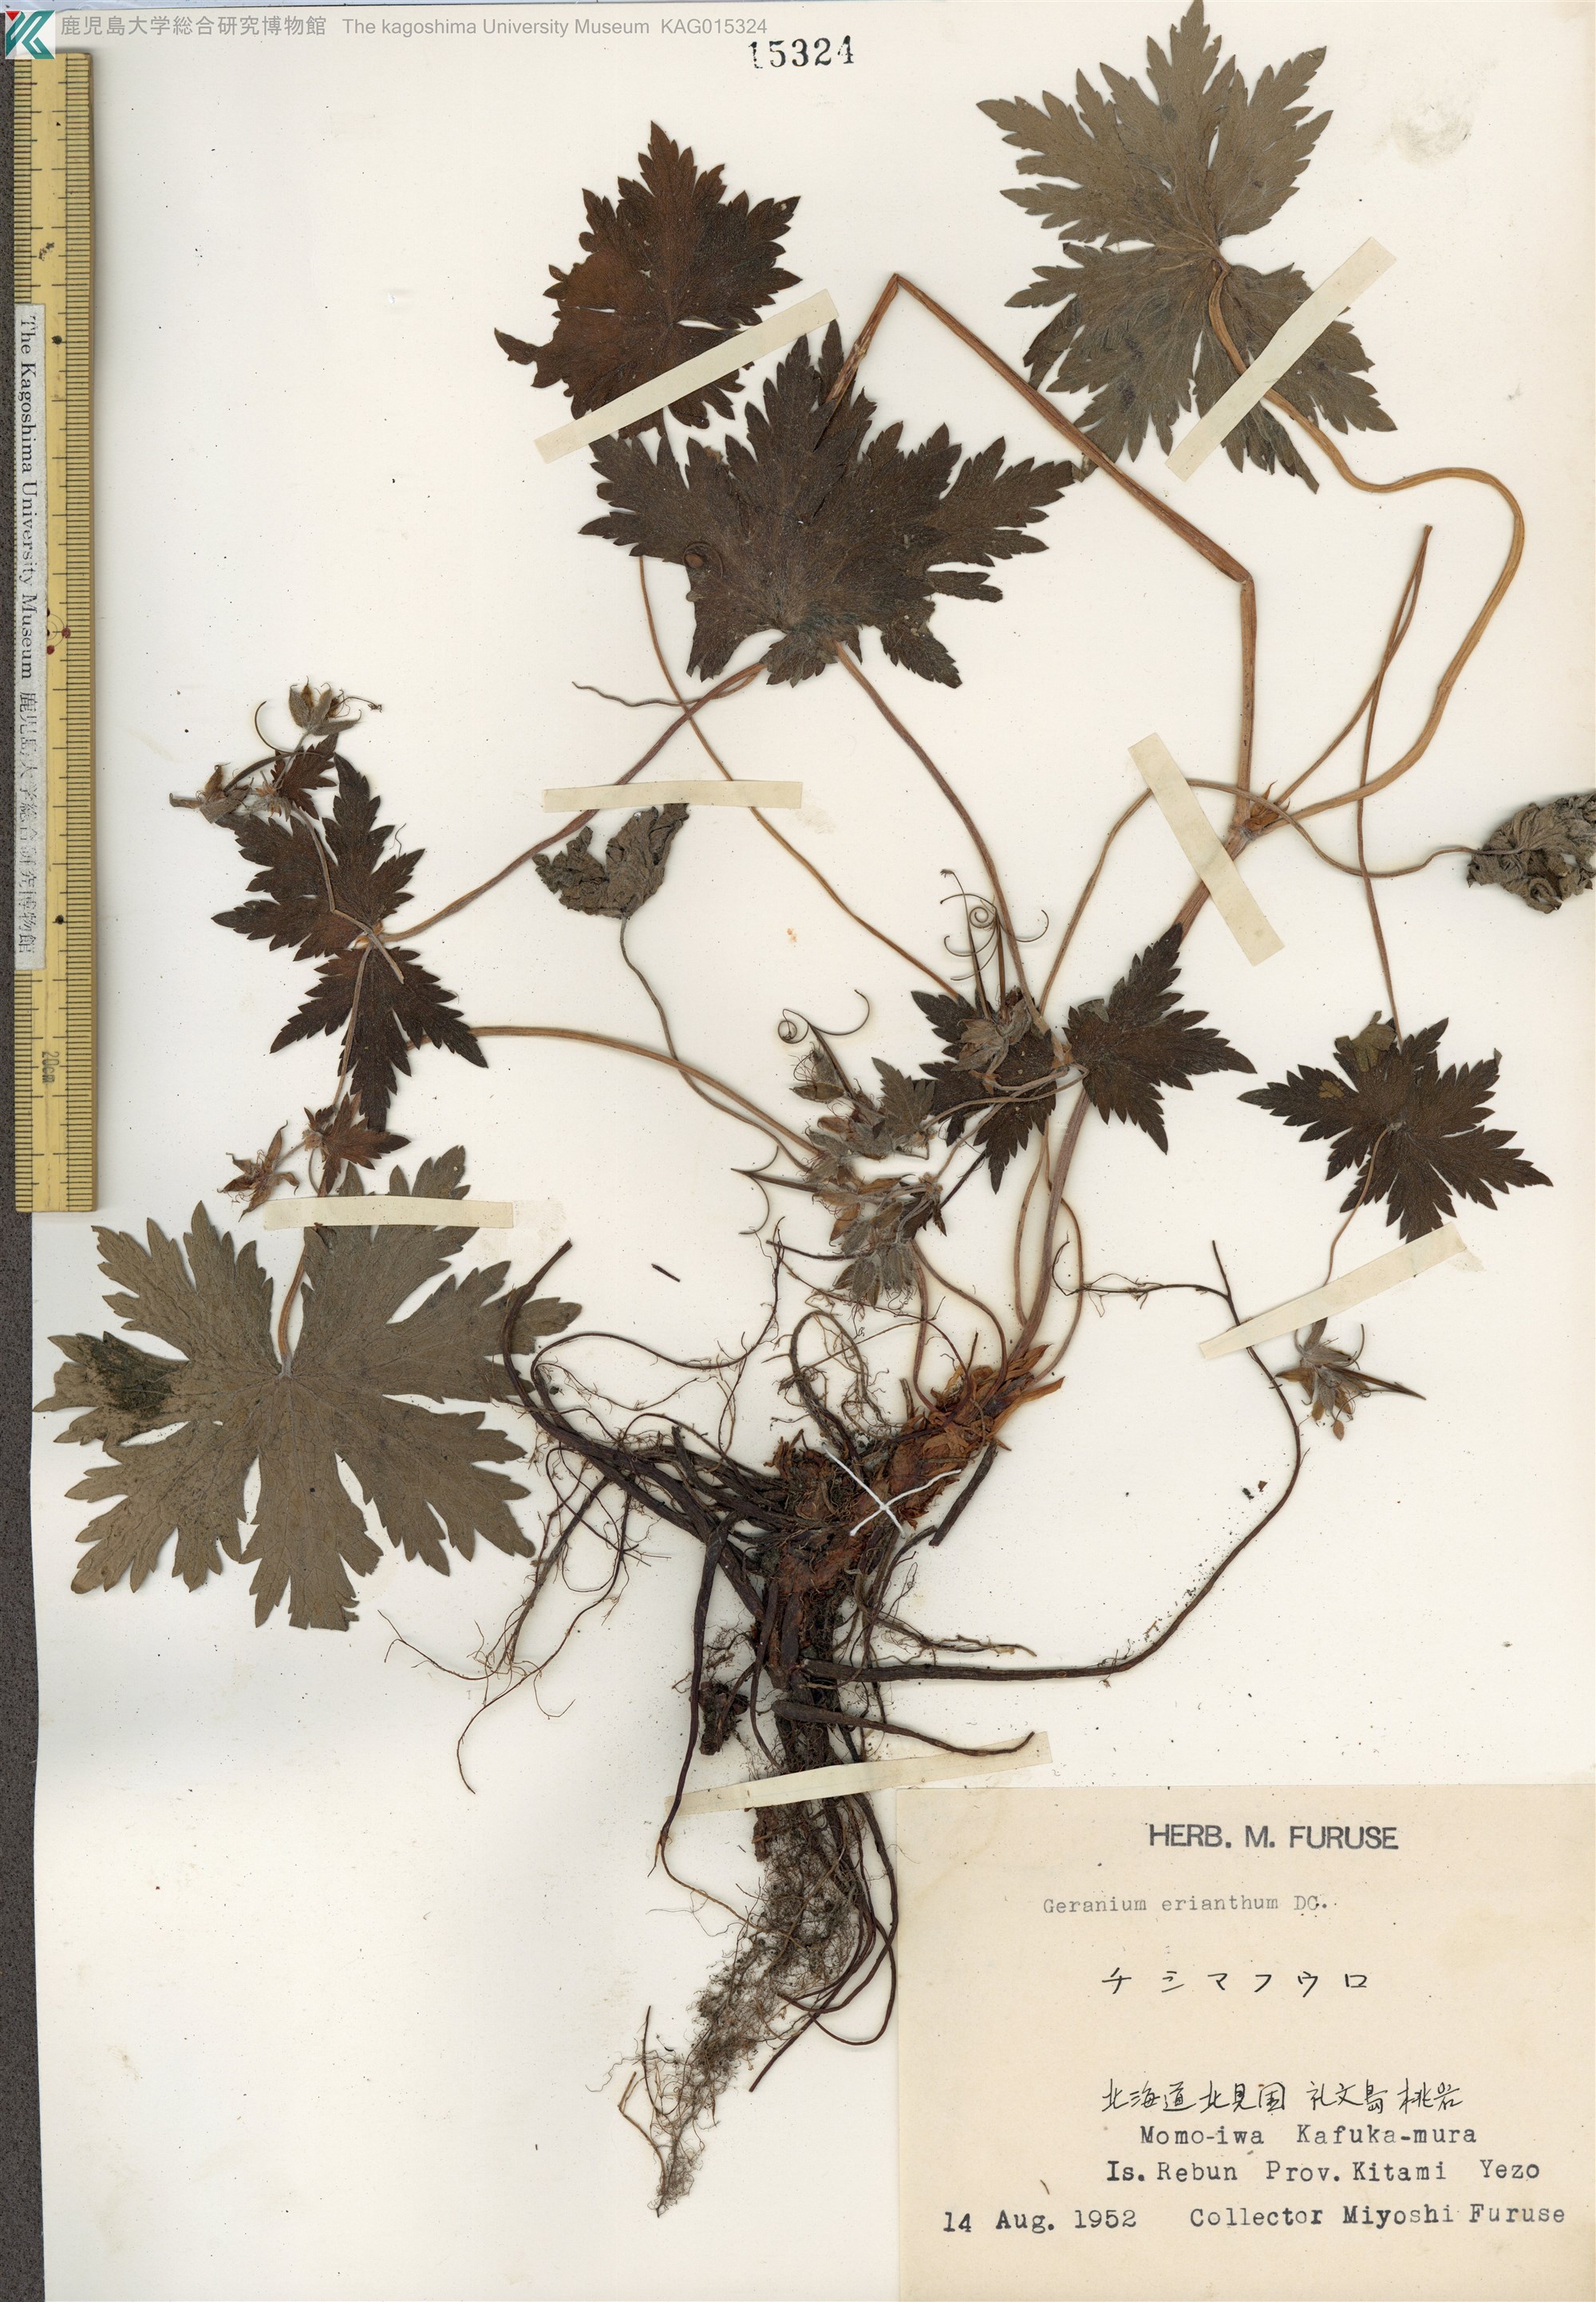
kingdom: Plantae
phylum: Tracheophyta
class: Magnoliopsida
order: Geraniales
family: Geraniaceae
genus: Geranium
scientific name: Geranium erianthum
